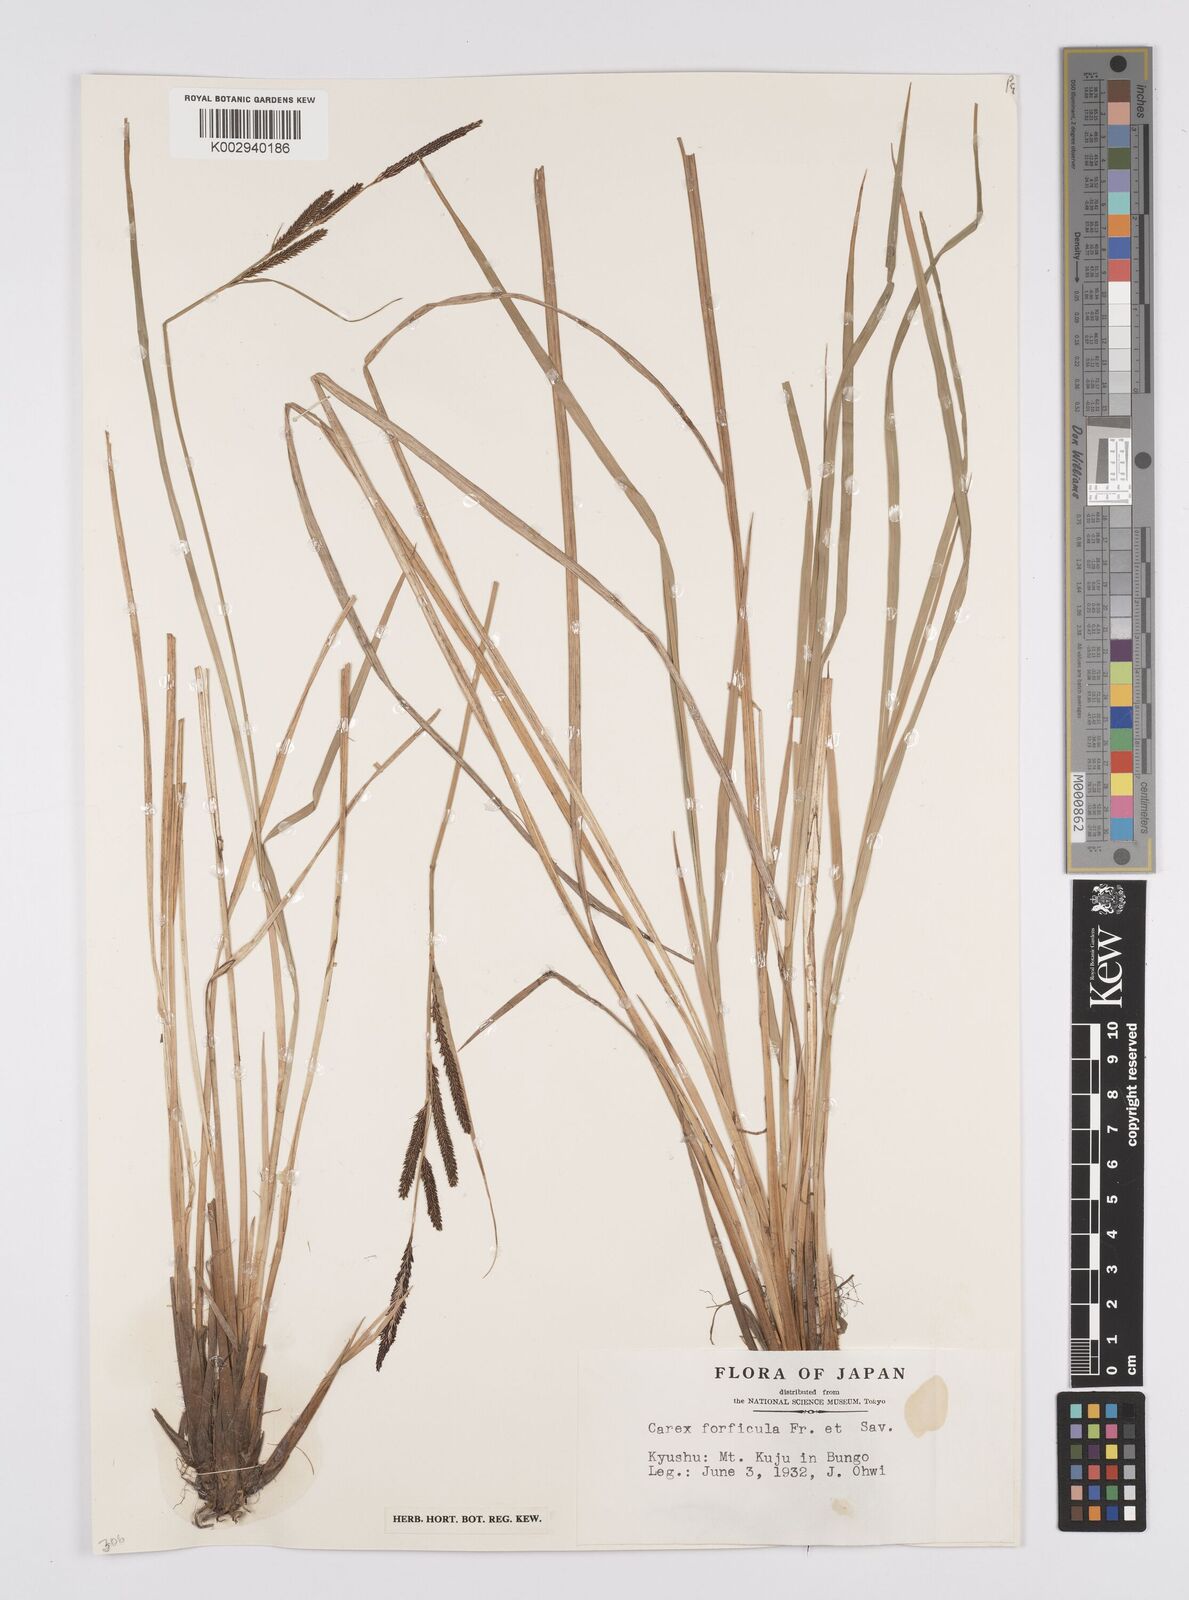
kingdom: Plantae
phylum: Tracheophyta
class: Liliopsida
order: Poales
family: Cyperaceae
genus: Carex
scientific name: Carex forficula
